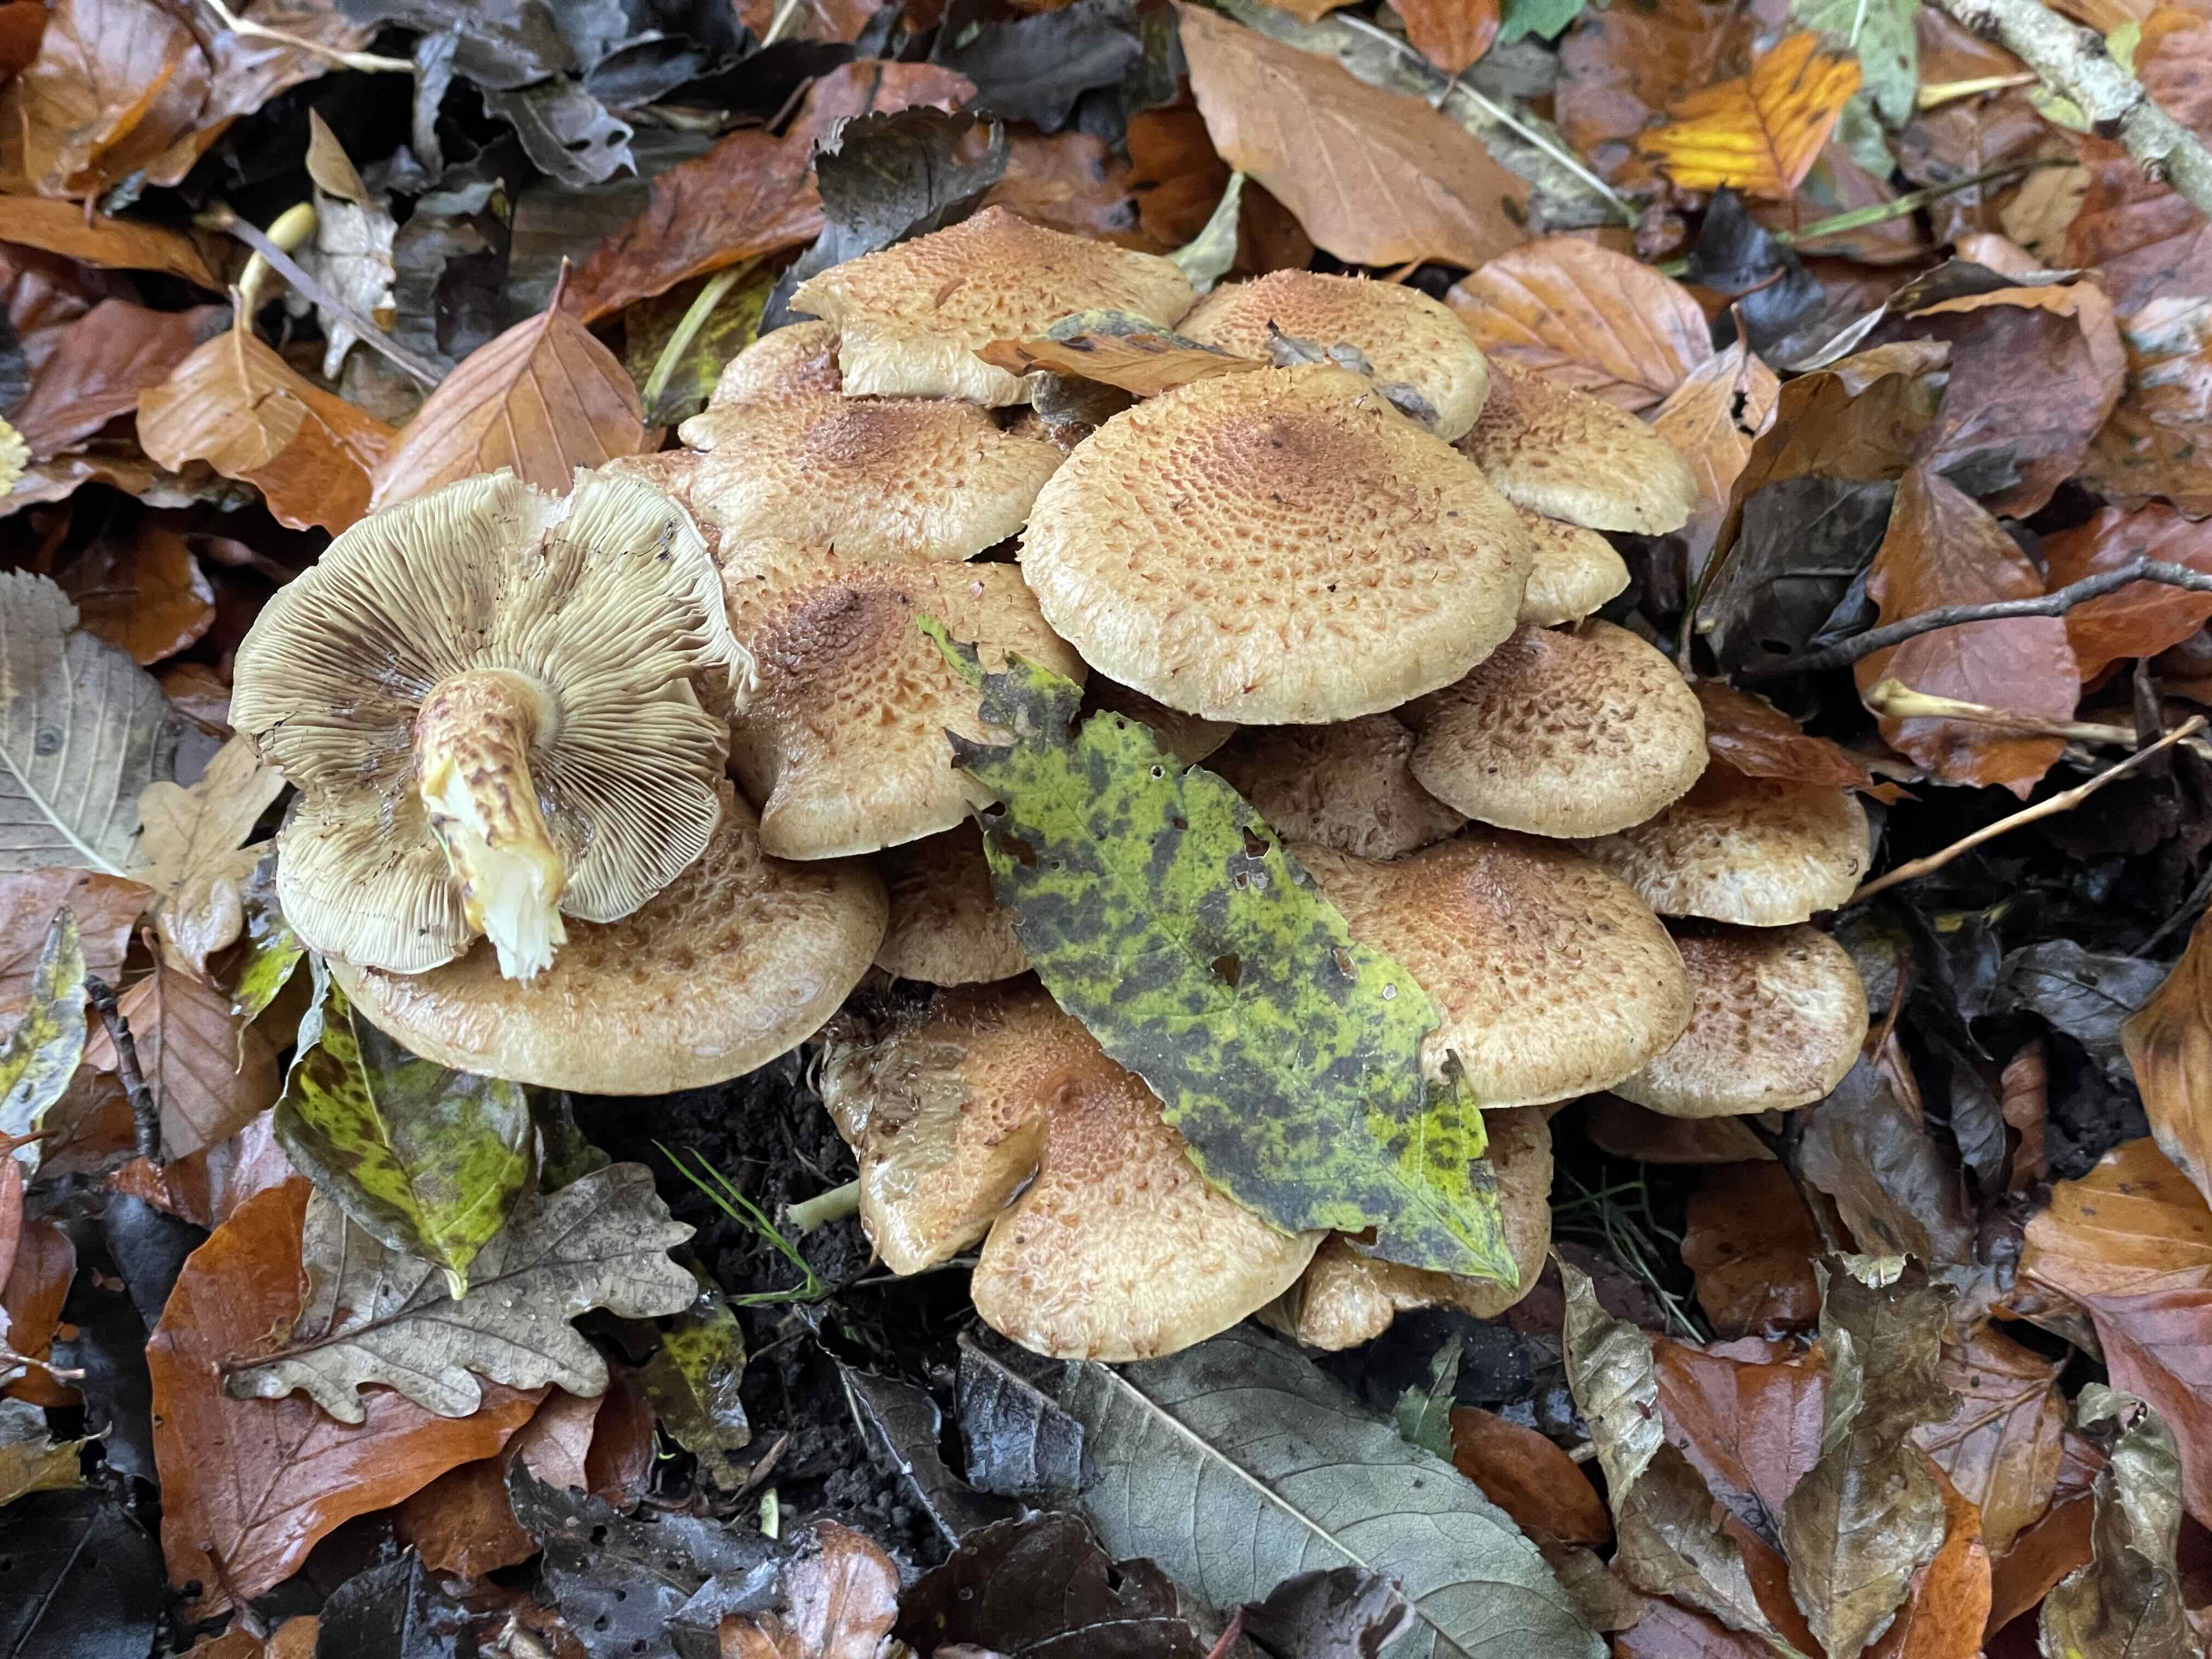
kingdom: Fungi
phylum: Basidiomycota
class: Agaricomycetes
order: Agaricales
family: Strophariaceae
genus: Pholiota
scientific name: Pholiota squarrosa
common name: krumskællet skælhat
